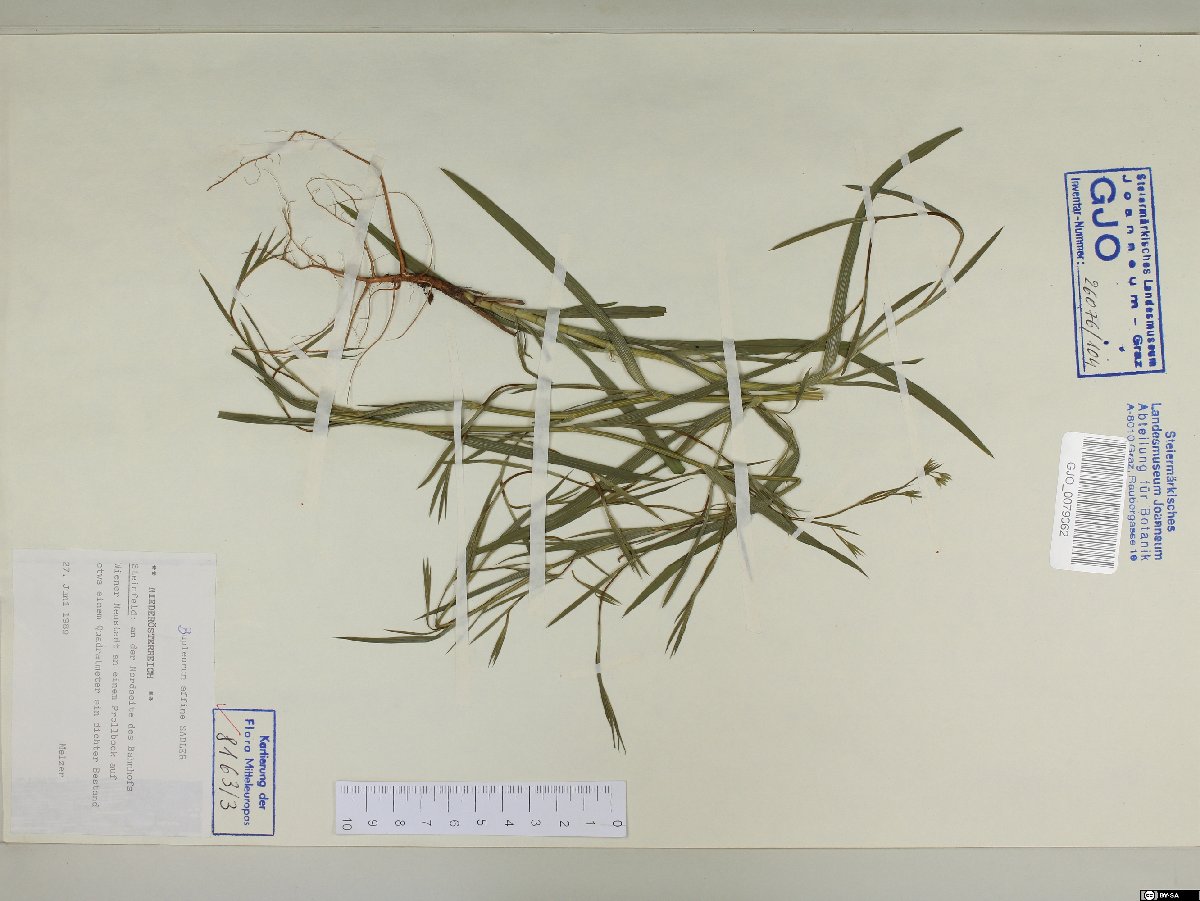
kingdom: Plantae
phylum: Tracheophyta
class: Magnoliopsida
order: Apiales
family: Apiaceae
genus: Bupleurum
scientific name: Bupleurum affine
